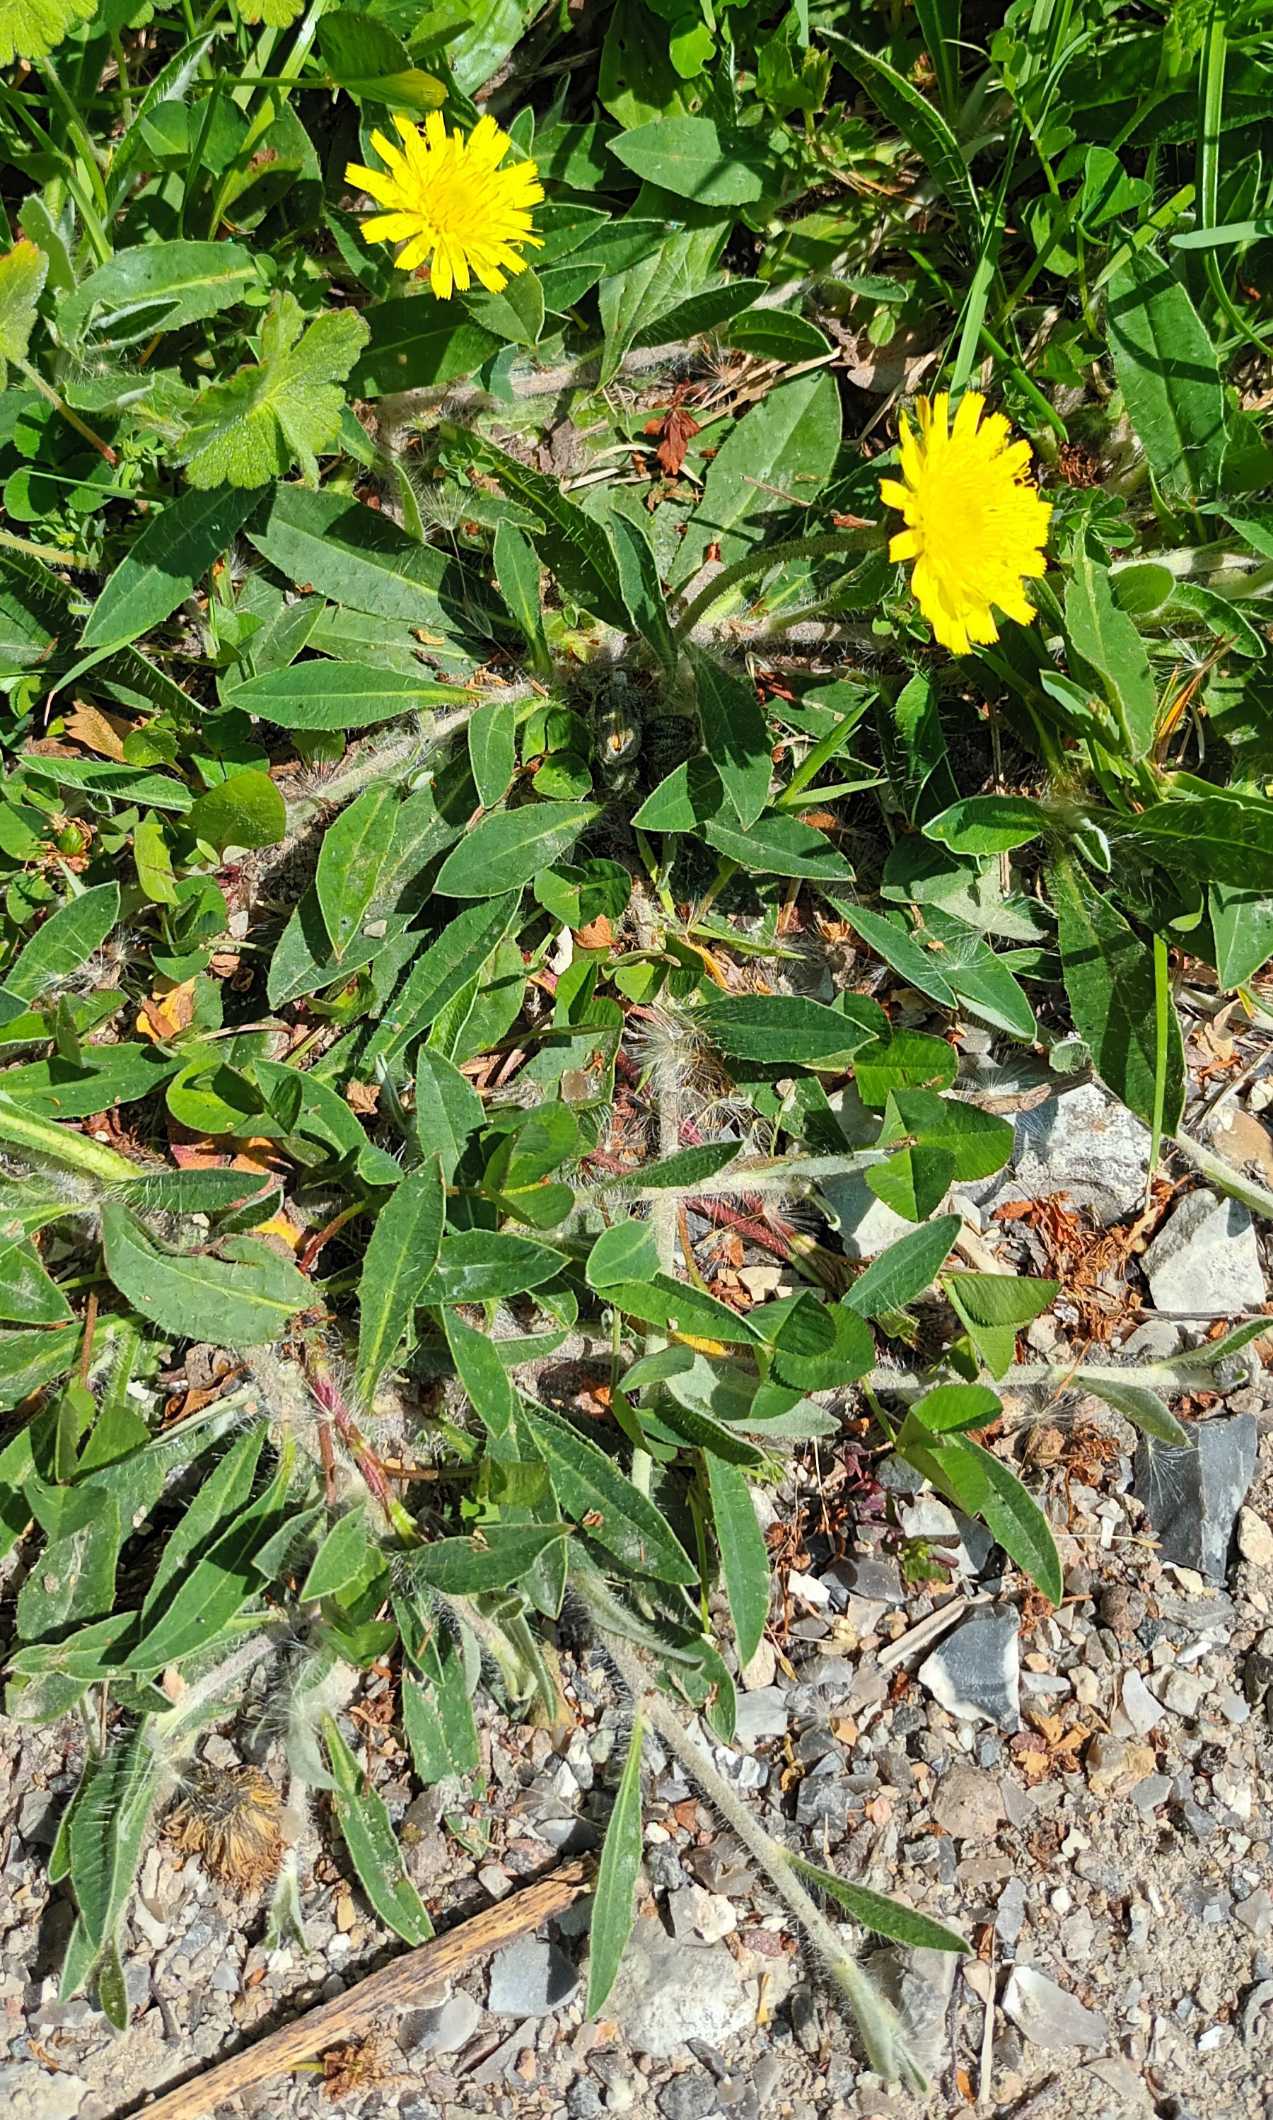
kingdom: Plantae
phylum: Tracheophyta
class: Magnoliopsida
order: Asterales
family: Asteraceae
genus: Pilosella
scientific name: Pilosella officinarum
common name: Håret høgeurt
